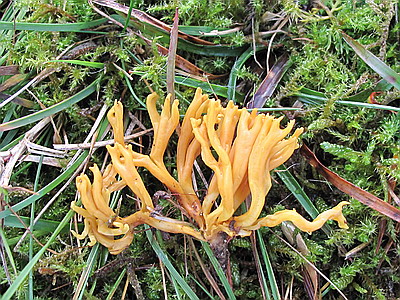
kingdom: Fungi
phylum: Basidiomycota
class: Agaricomycetes
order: Agaricales
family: Clavariaceae
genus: Clavulinopsis
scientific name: Clavulinopsis corniculata
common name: eng-køllesvamp
